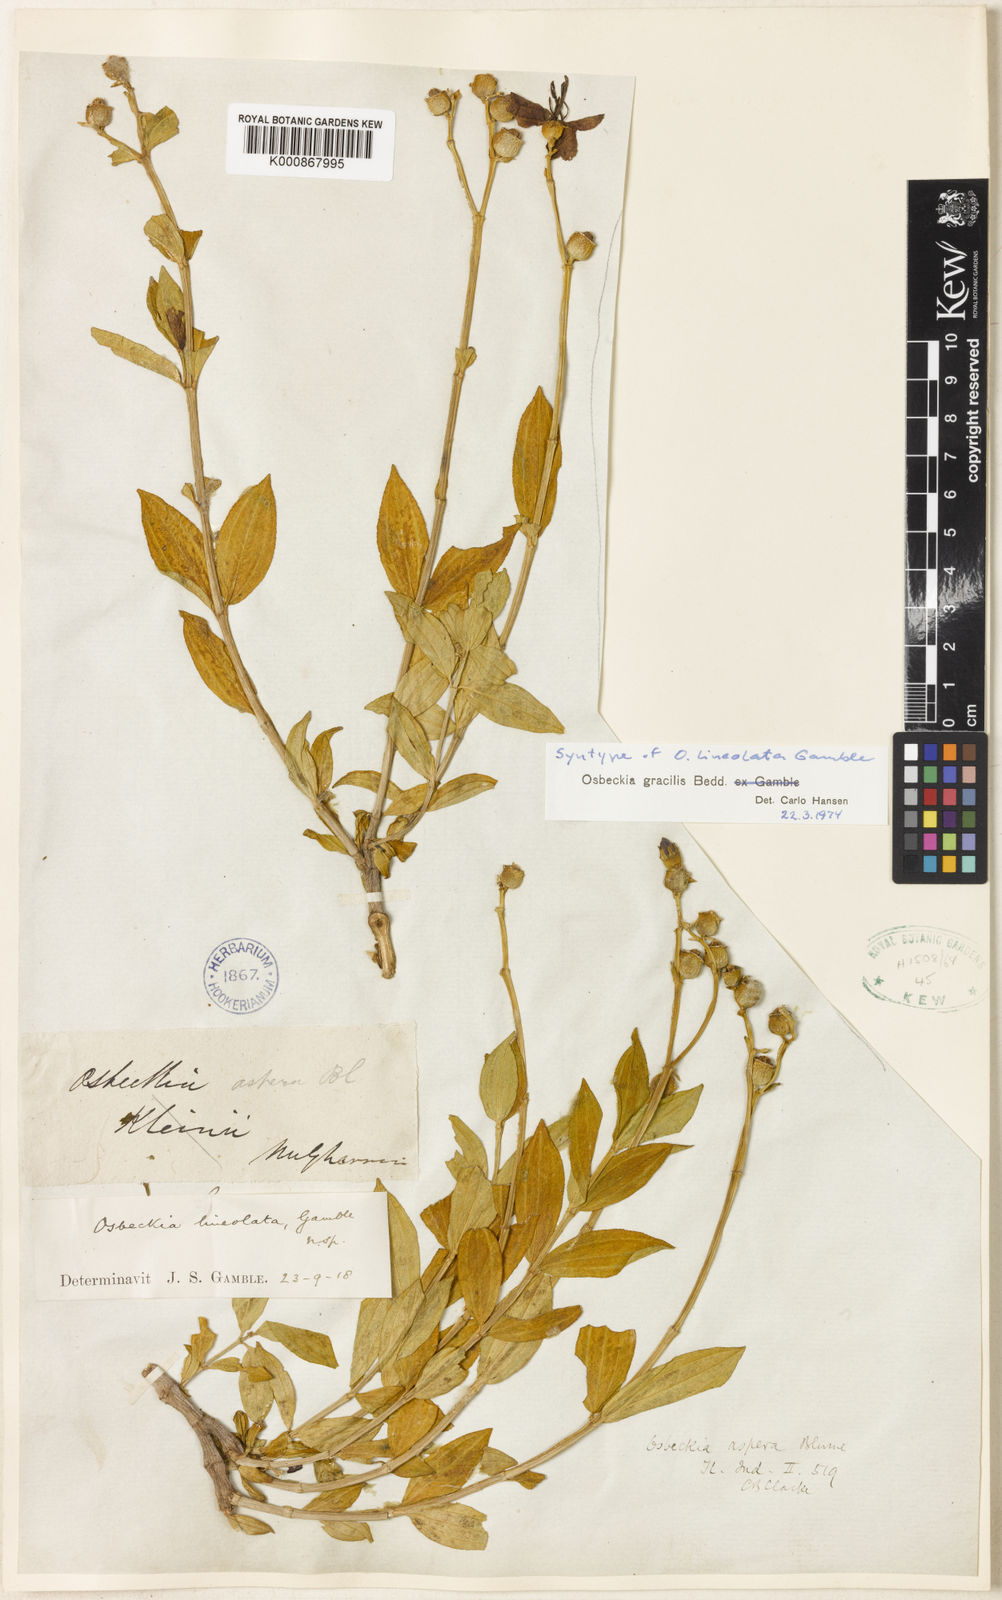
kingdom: Plantae
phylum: Tracheophyta
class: Magnoliopsida
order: Myrtales
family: Melastomataceae
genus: Osbeckia
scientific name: Osbeckia gracilis
